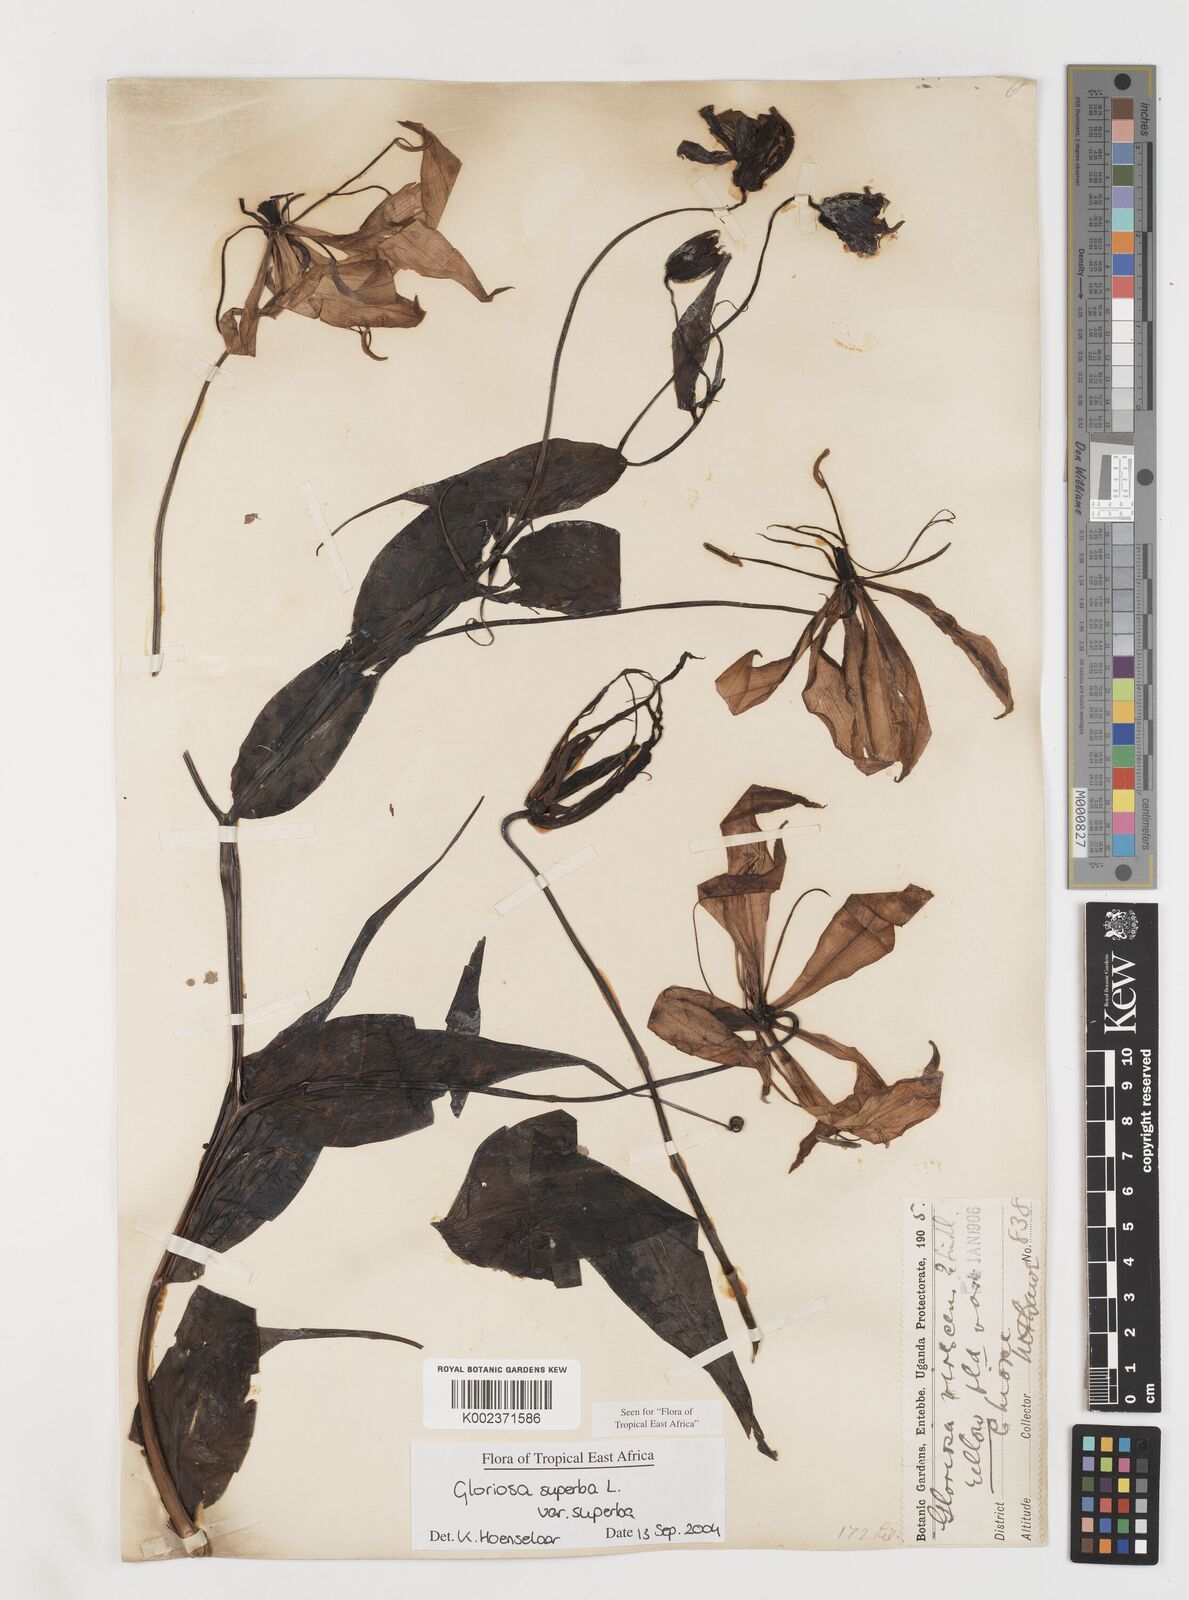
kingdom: Plantae
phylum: Tracheophyta
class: Liliopsida
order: Liliales
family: Colchicaceae
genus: Gloriosa
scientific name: Gloriosa simplex
